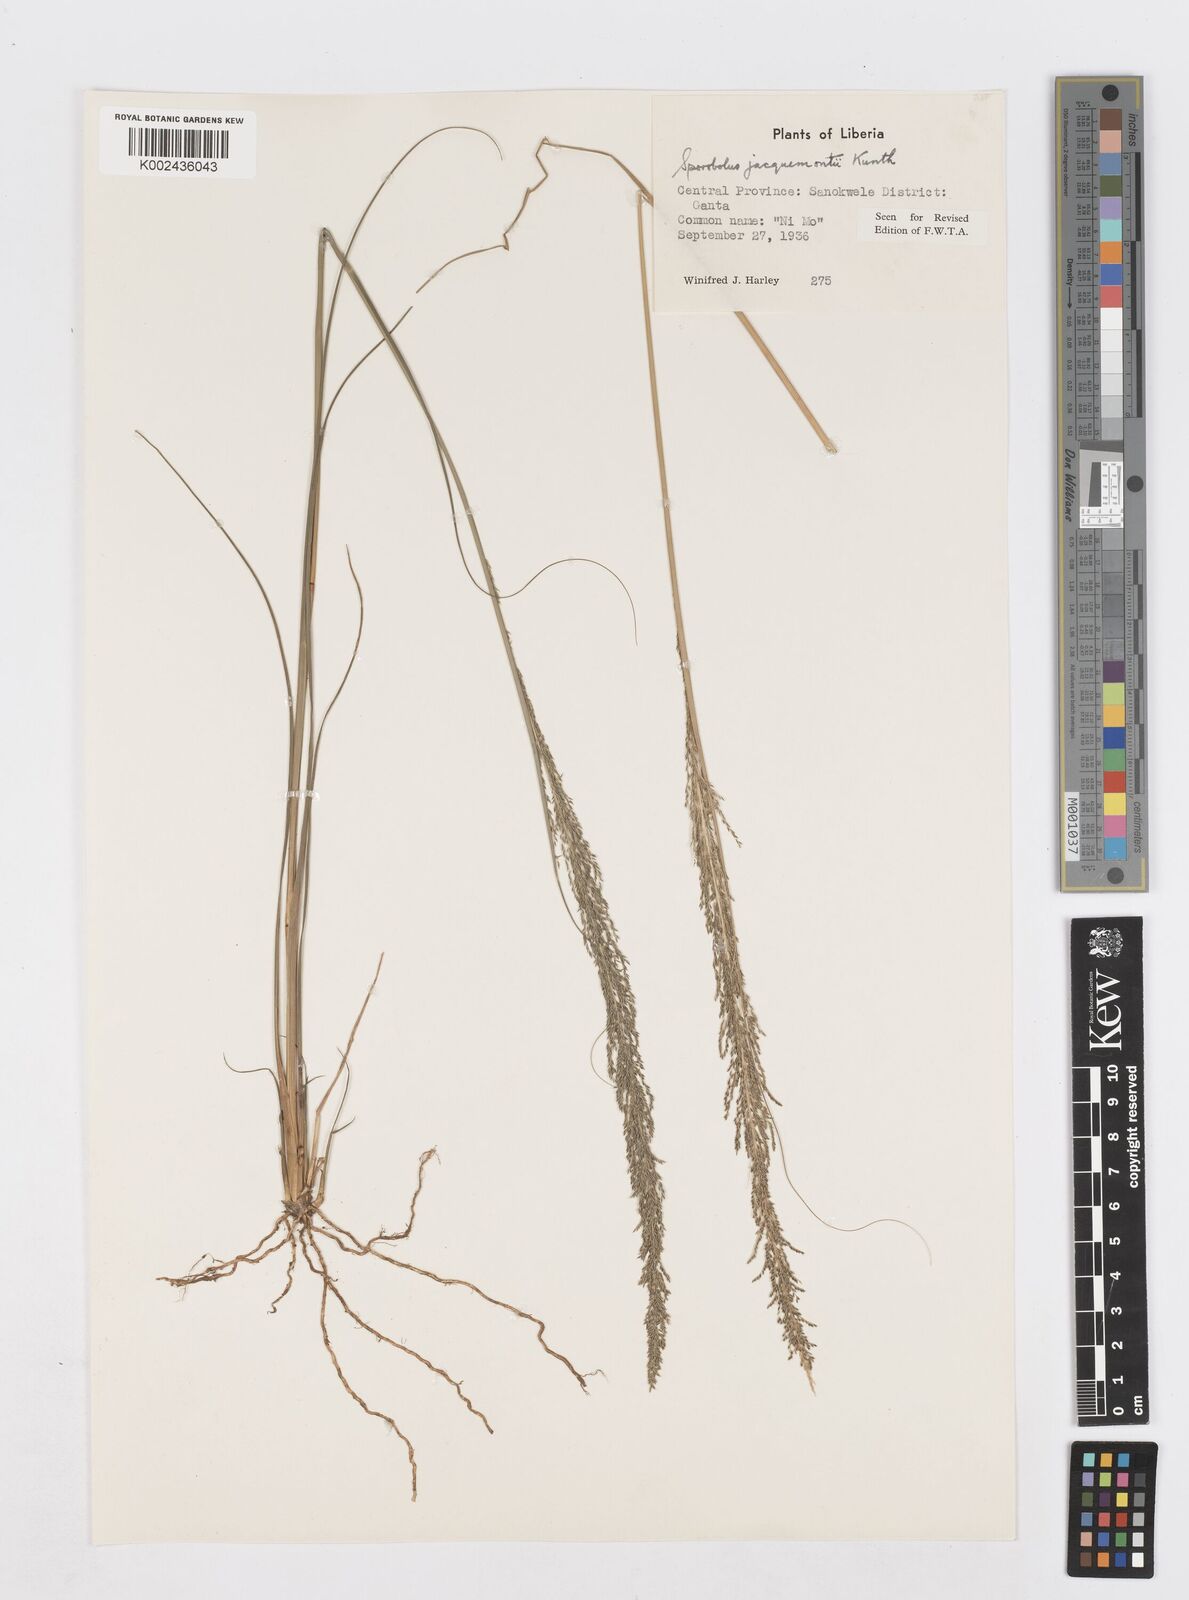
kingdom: Plantae
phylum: Tracheophyta
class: Liliopsida
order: Poales
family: Poaceae
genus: Sporobolus
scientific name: Sporobolus pyramidalis
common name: West indian dropseed
